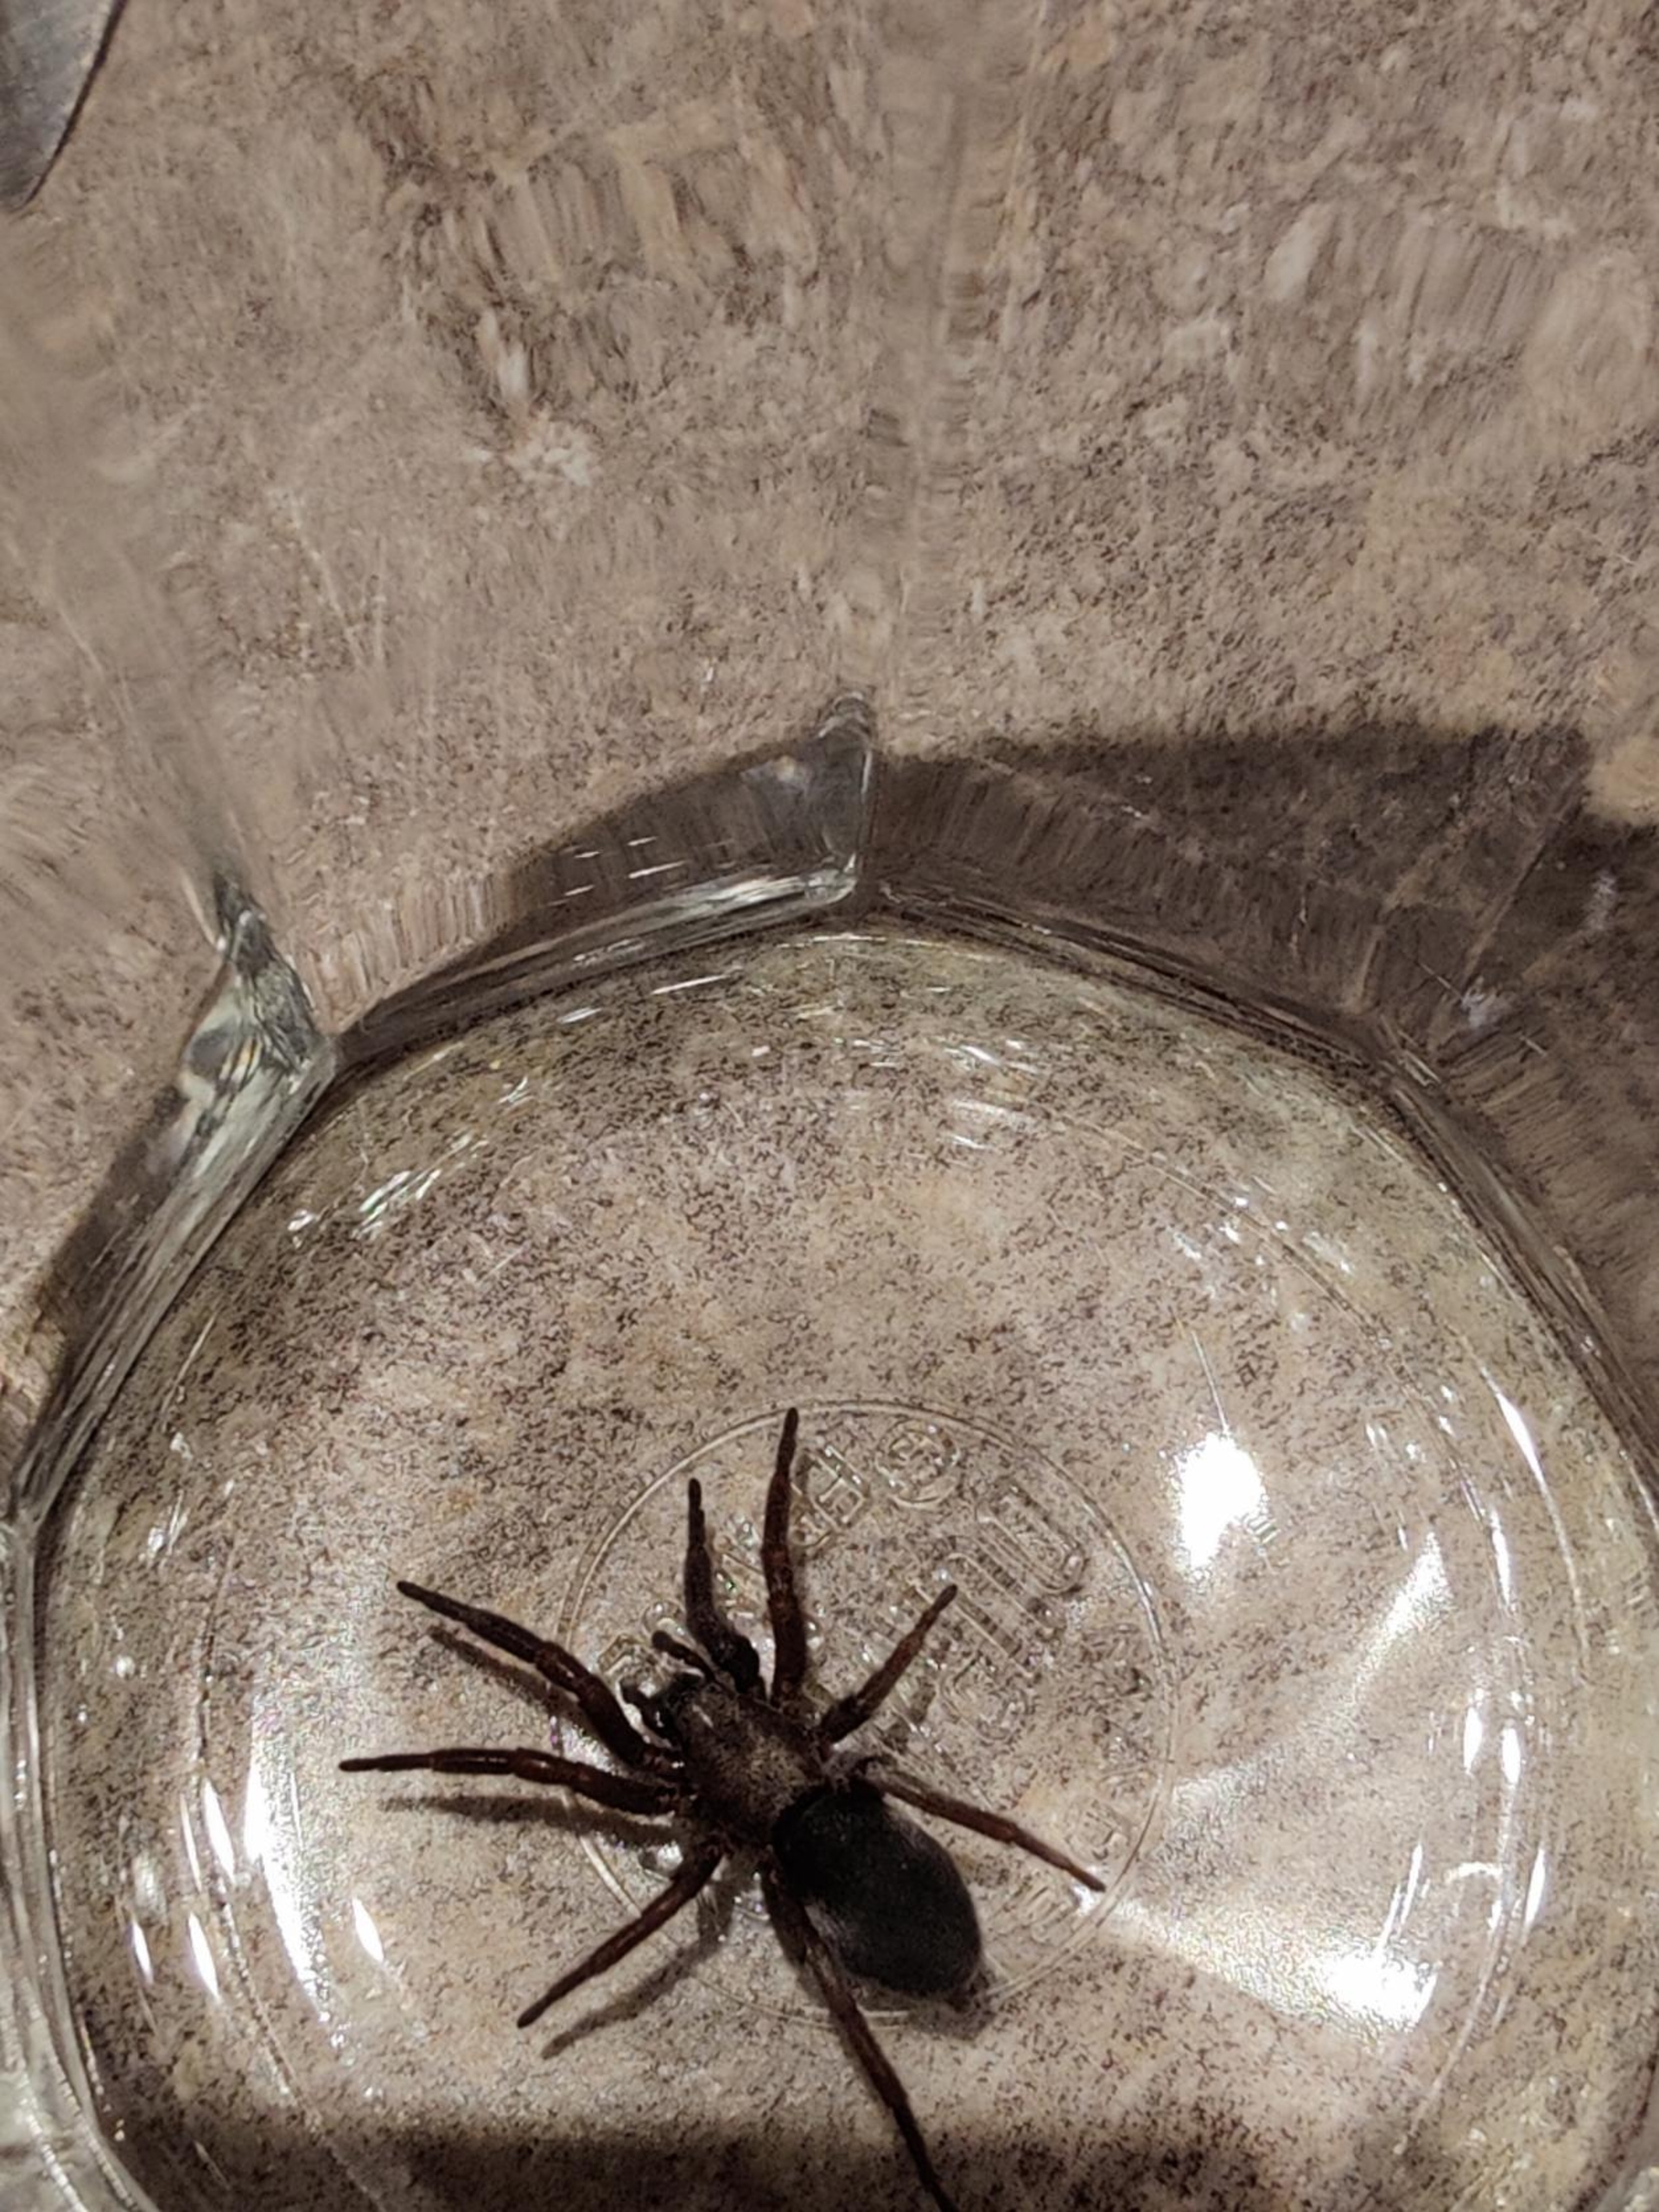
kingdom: Animalia
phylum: Arthropoda
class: Arachnida
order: Araneae
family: Gnaphosidae
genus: Scotophaeus
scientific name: Scotophaeus
